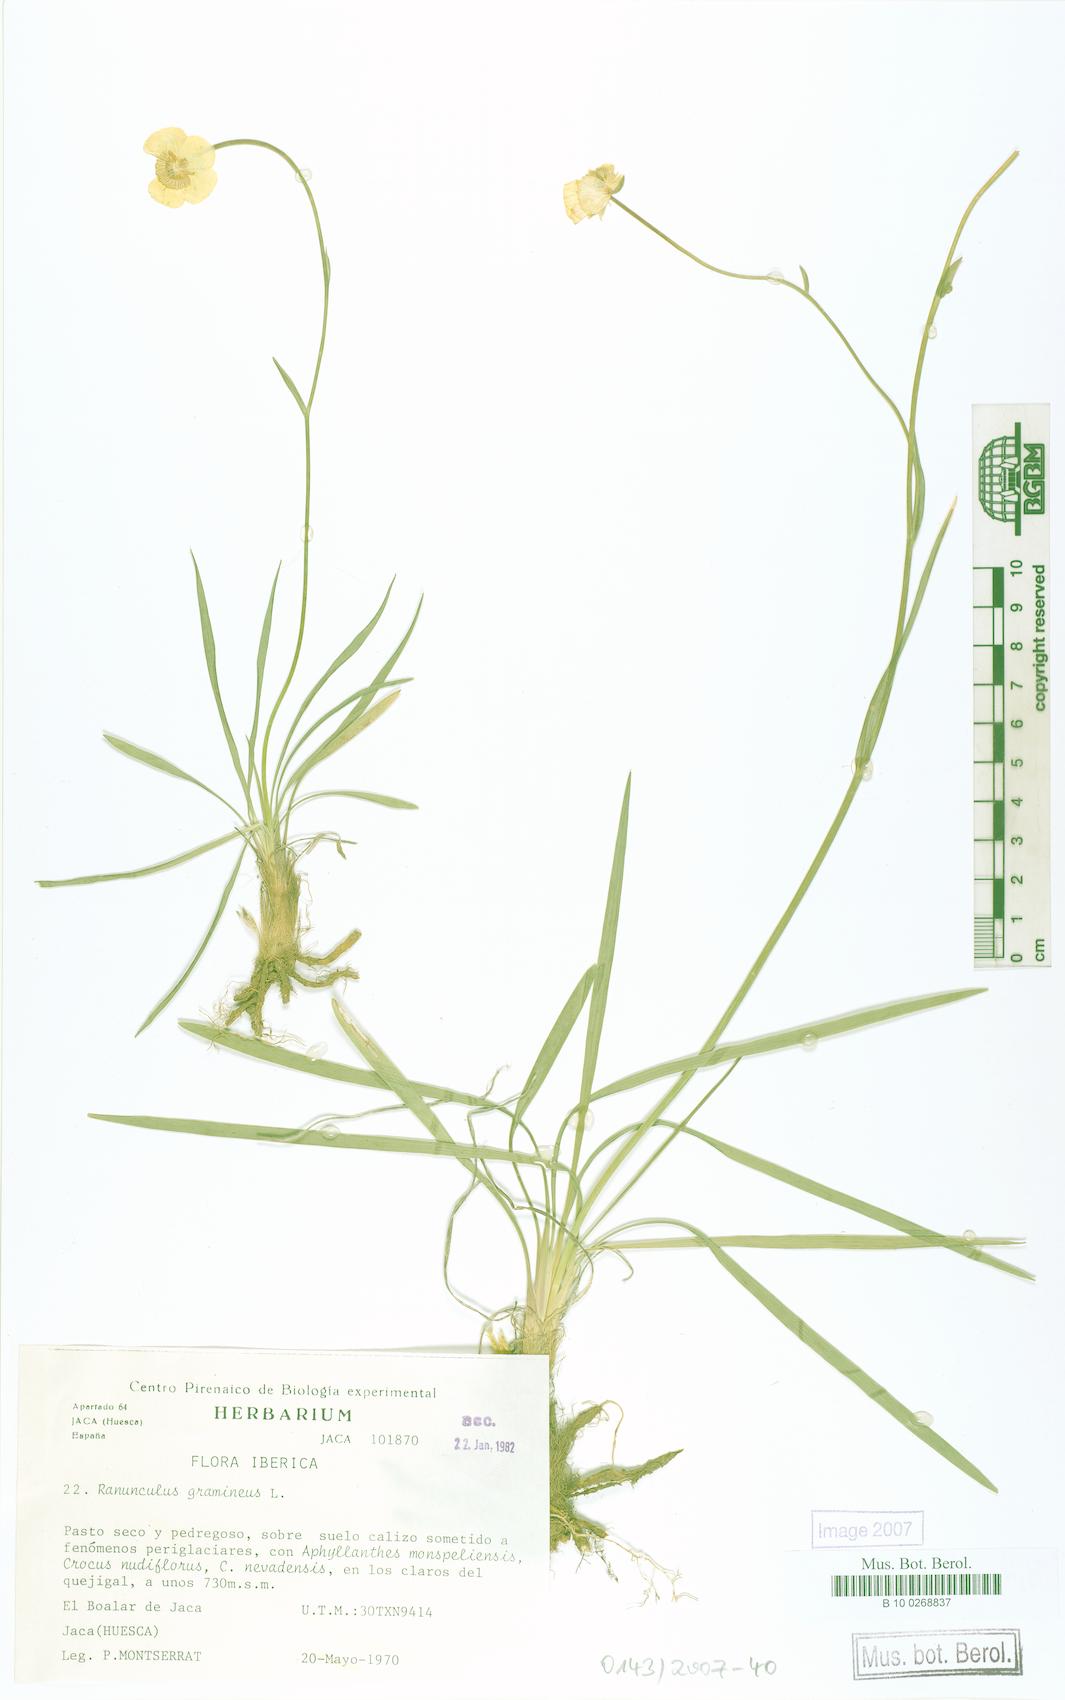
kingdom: Plantae
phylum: Tracheophyta
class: Magnoliopsida
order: Ranunculales
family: Ranunculaceae
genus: Ranunculus
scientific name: Ranunculus gramineus
